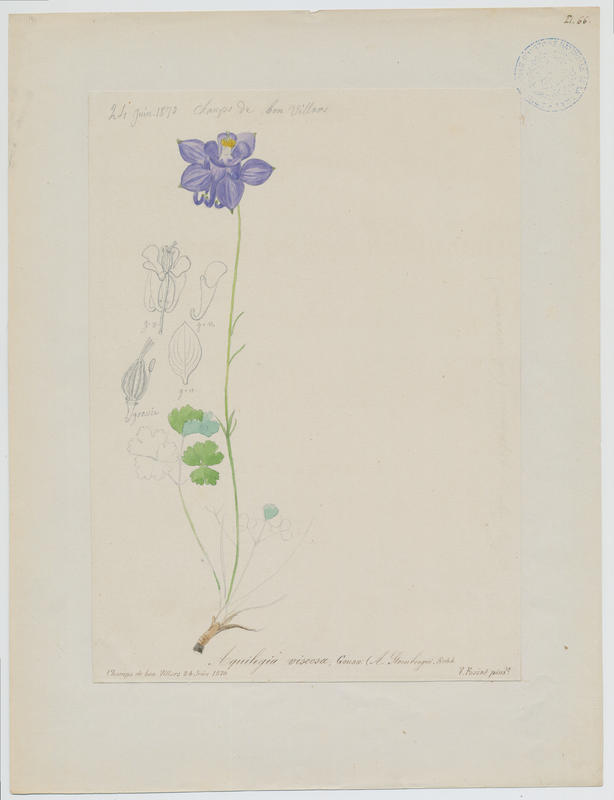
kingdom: Plantae
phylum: Tracheophyta
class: Magnoliopsida
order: Ranunculales
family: Ranunculaceae
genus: Aquilegia
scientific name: Aquilegia viscosa
